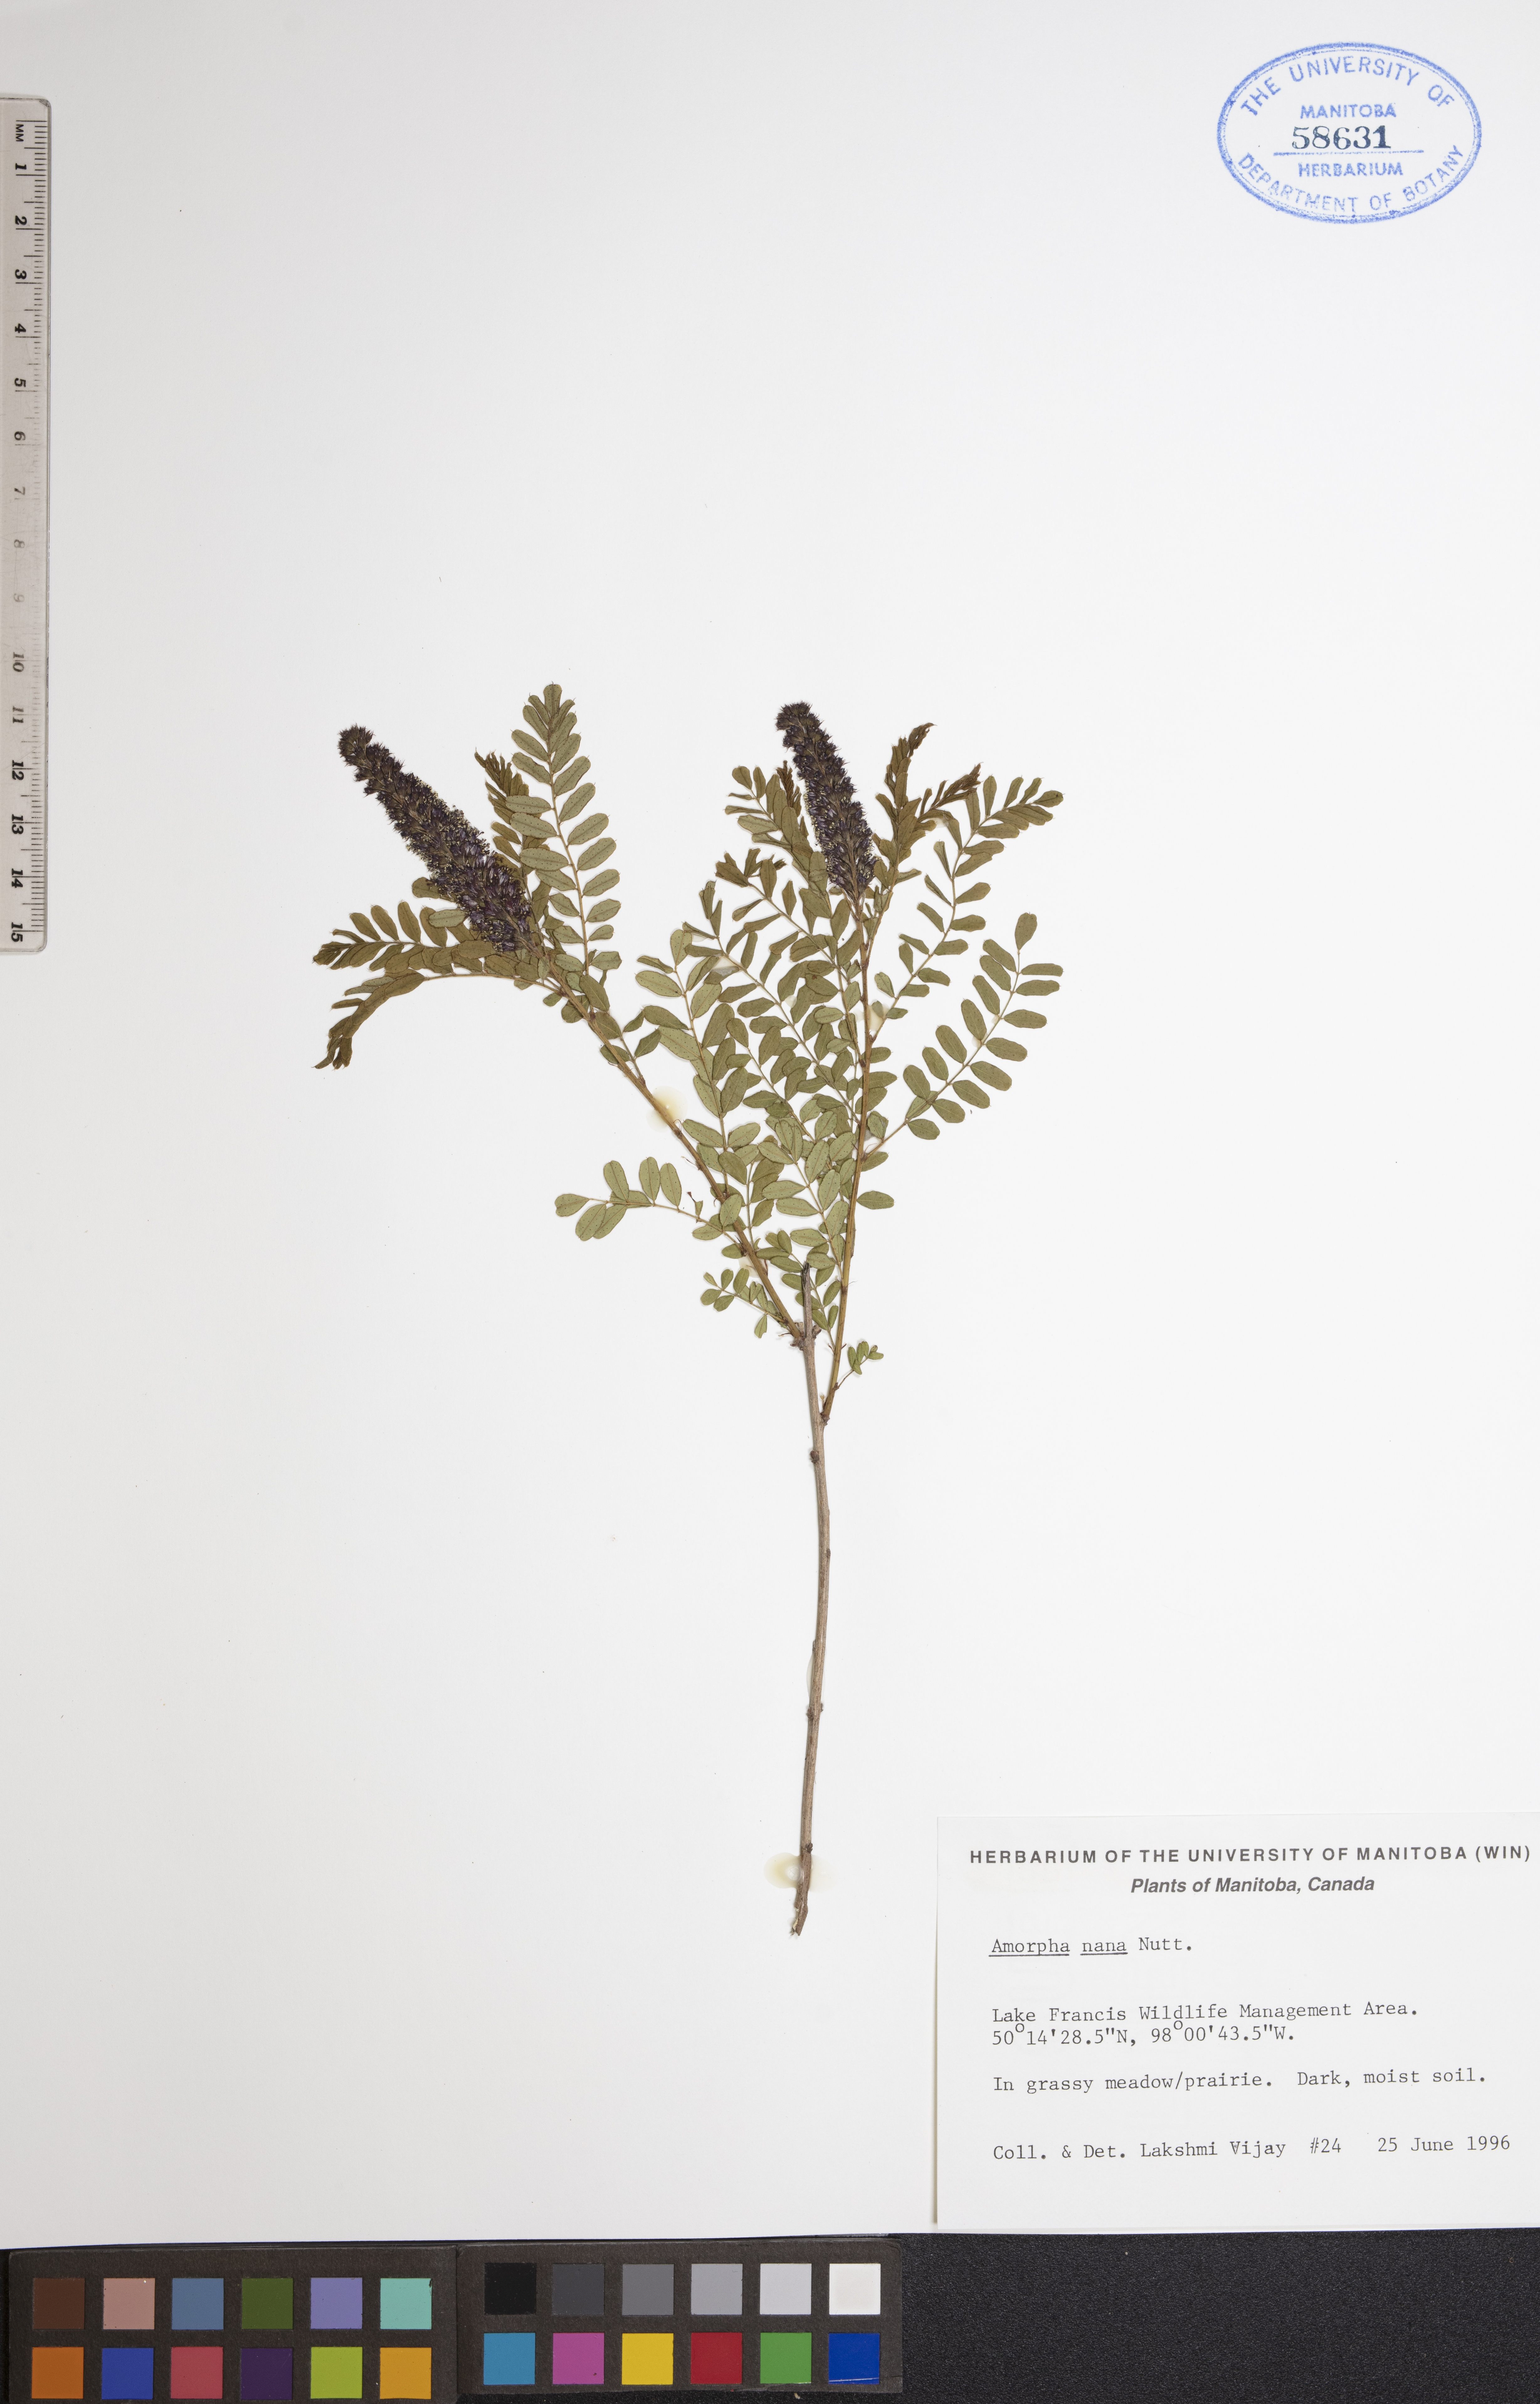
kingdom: Plantae
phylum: Tracheophyta
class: Magnoliopsida
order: Fabales
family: Fabaceae
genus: Amorpha
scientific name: Amorpha nana
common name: Fragrant false indigo
